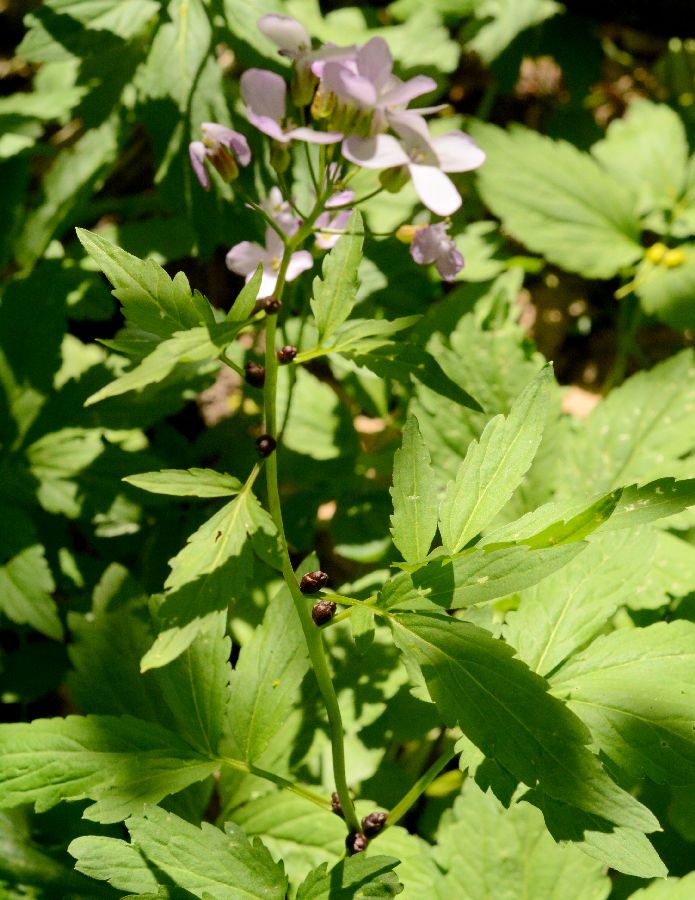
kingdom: Animalia
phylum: Mollusca
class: Bivalvia
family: Protocuspidariidae
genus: Dentaria
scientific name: Dentaria
